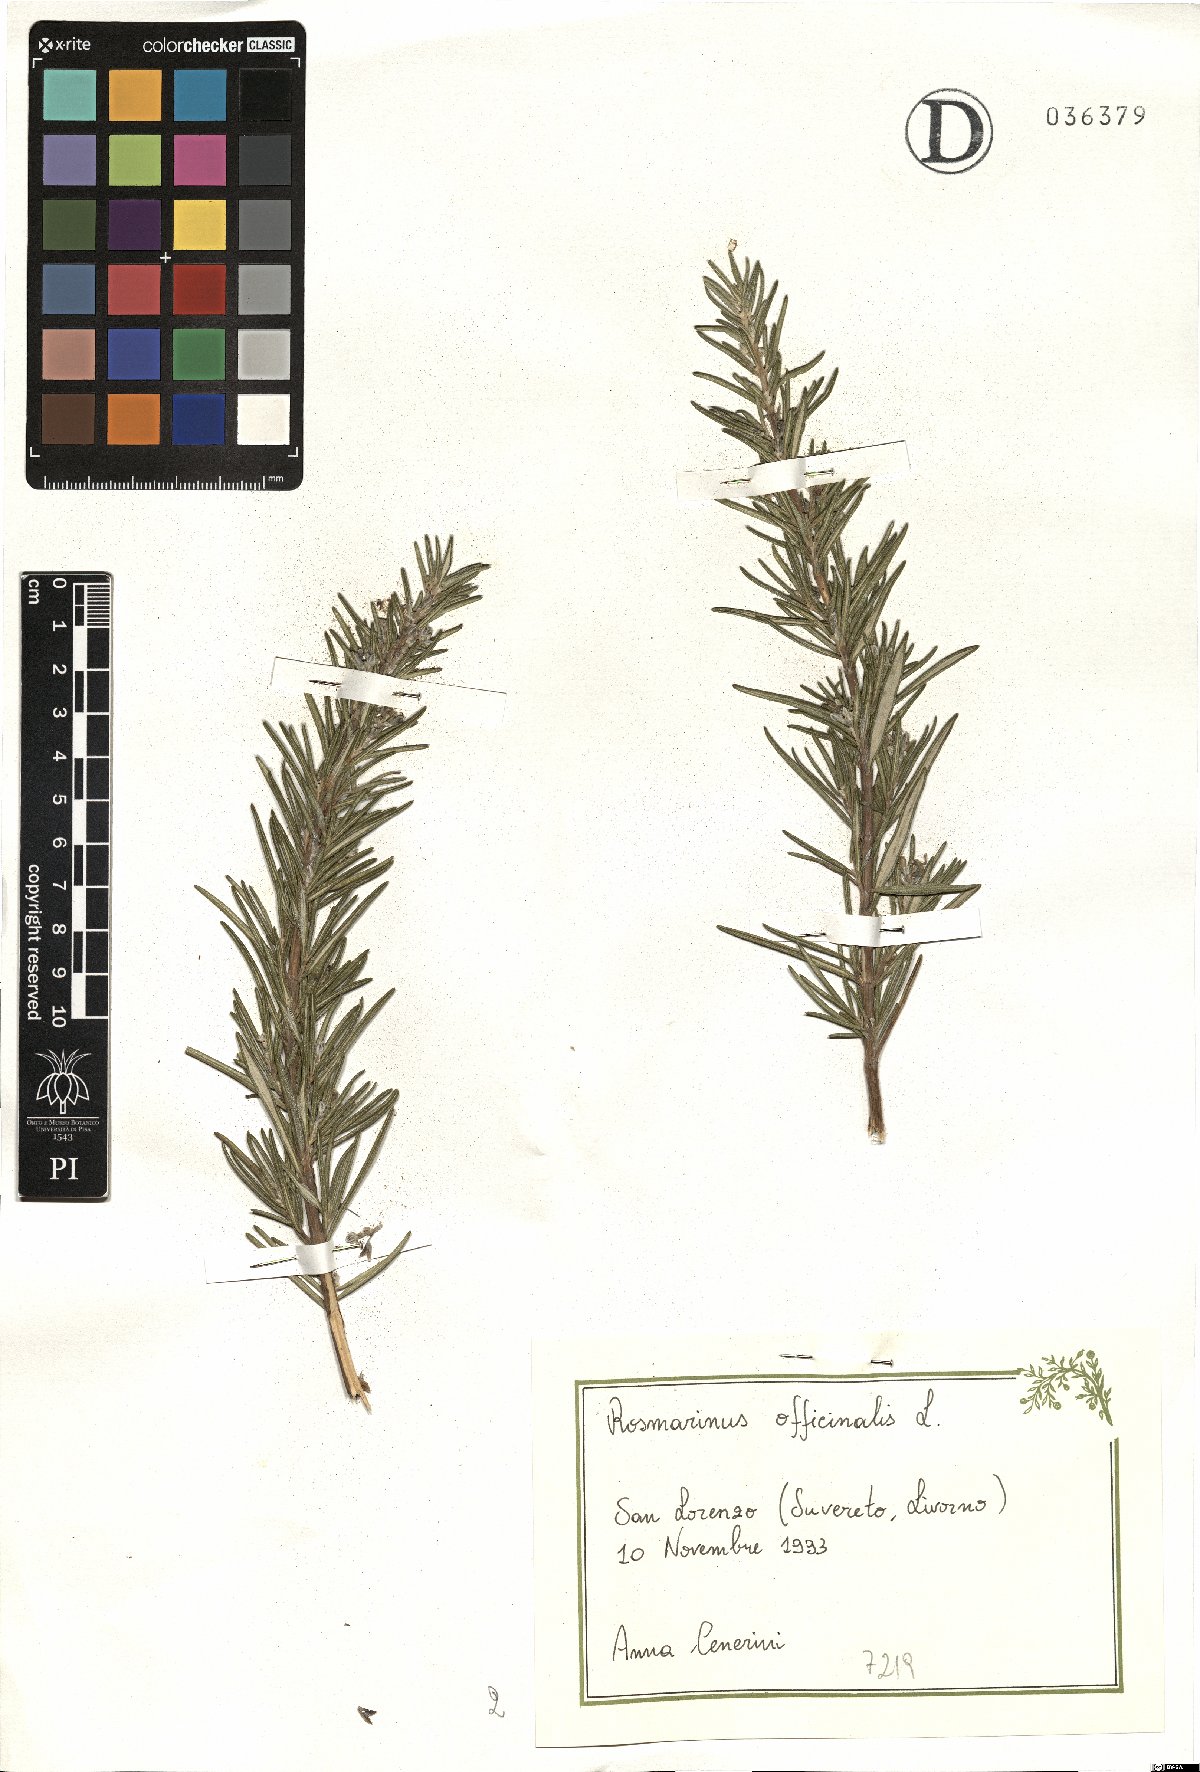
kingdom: Plantae
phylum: Tracheophyta
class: Magnoliopsida
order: Lamiales
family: Lamiaceae
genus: Salvia
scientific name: Salvia rosmarinus
